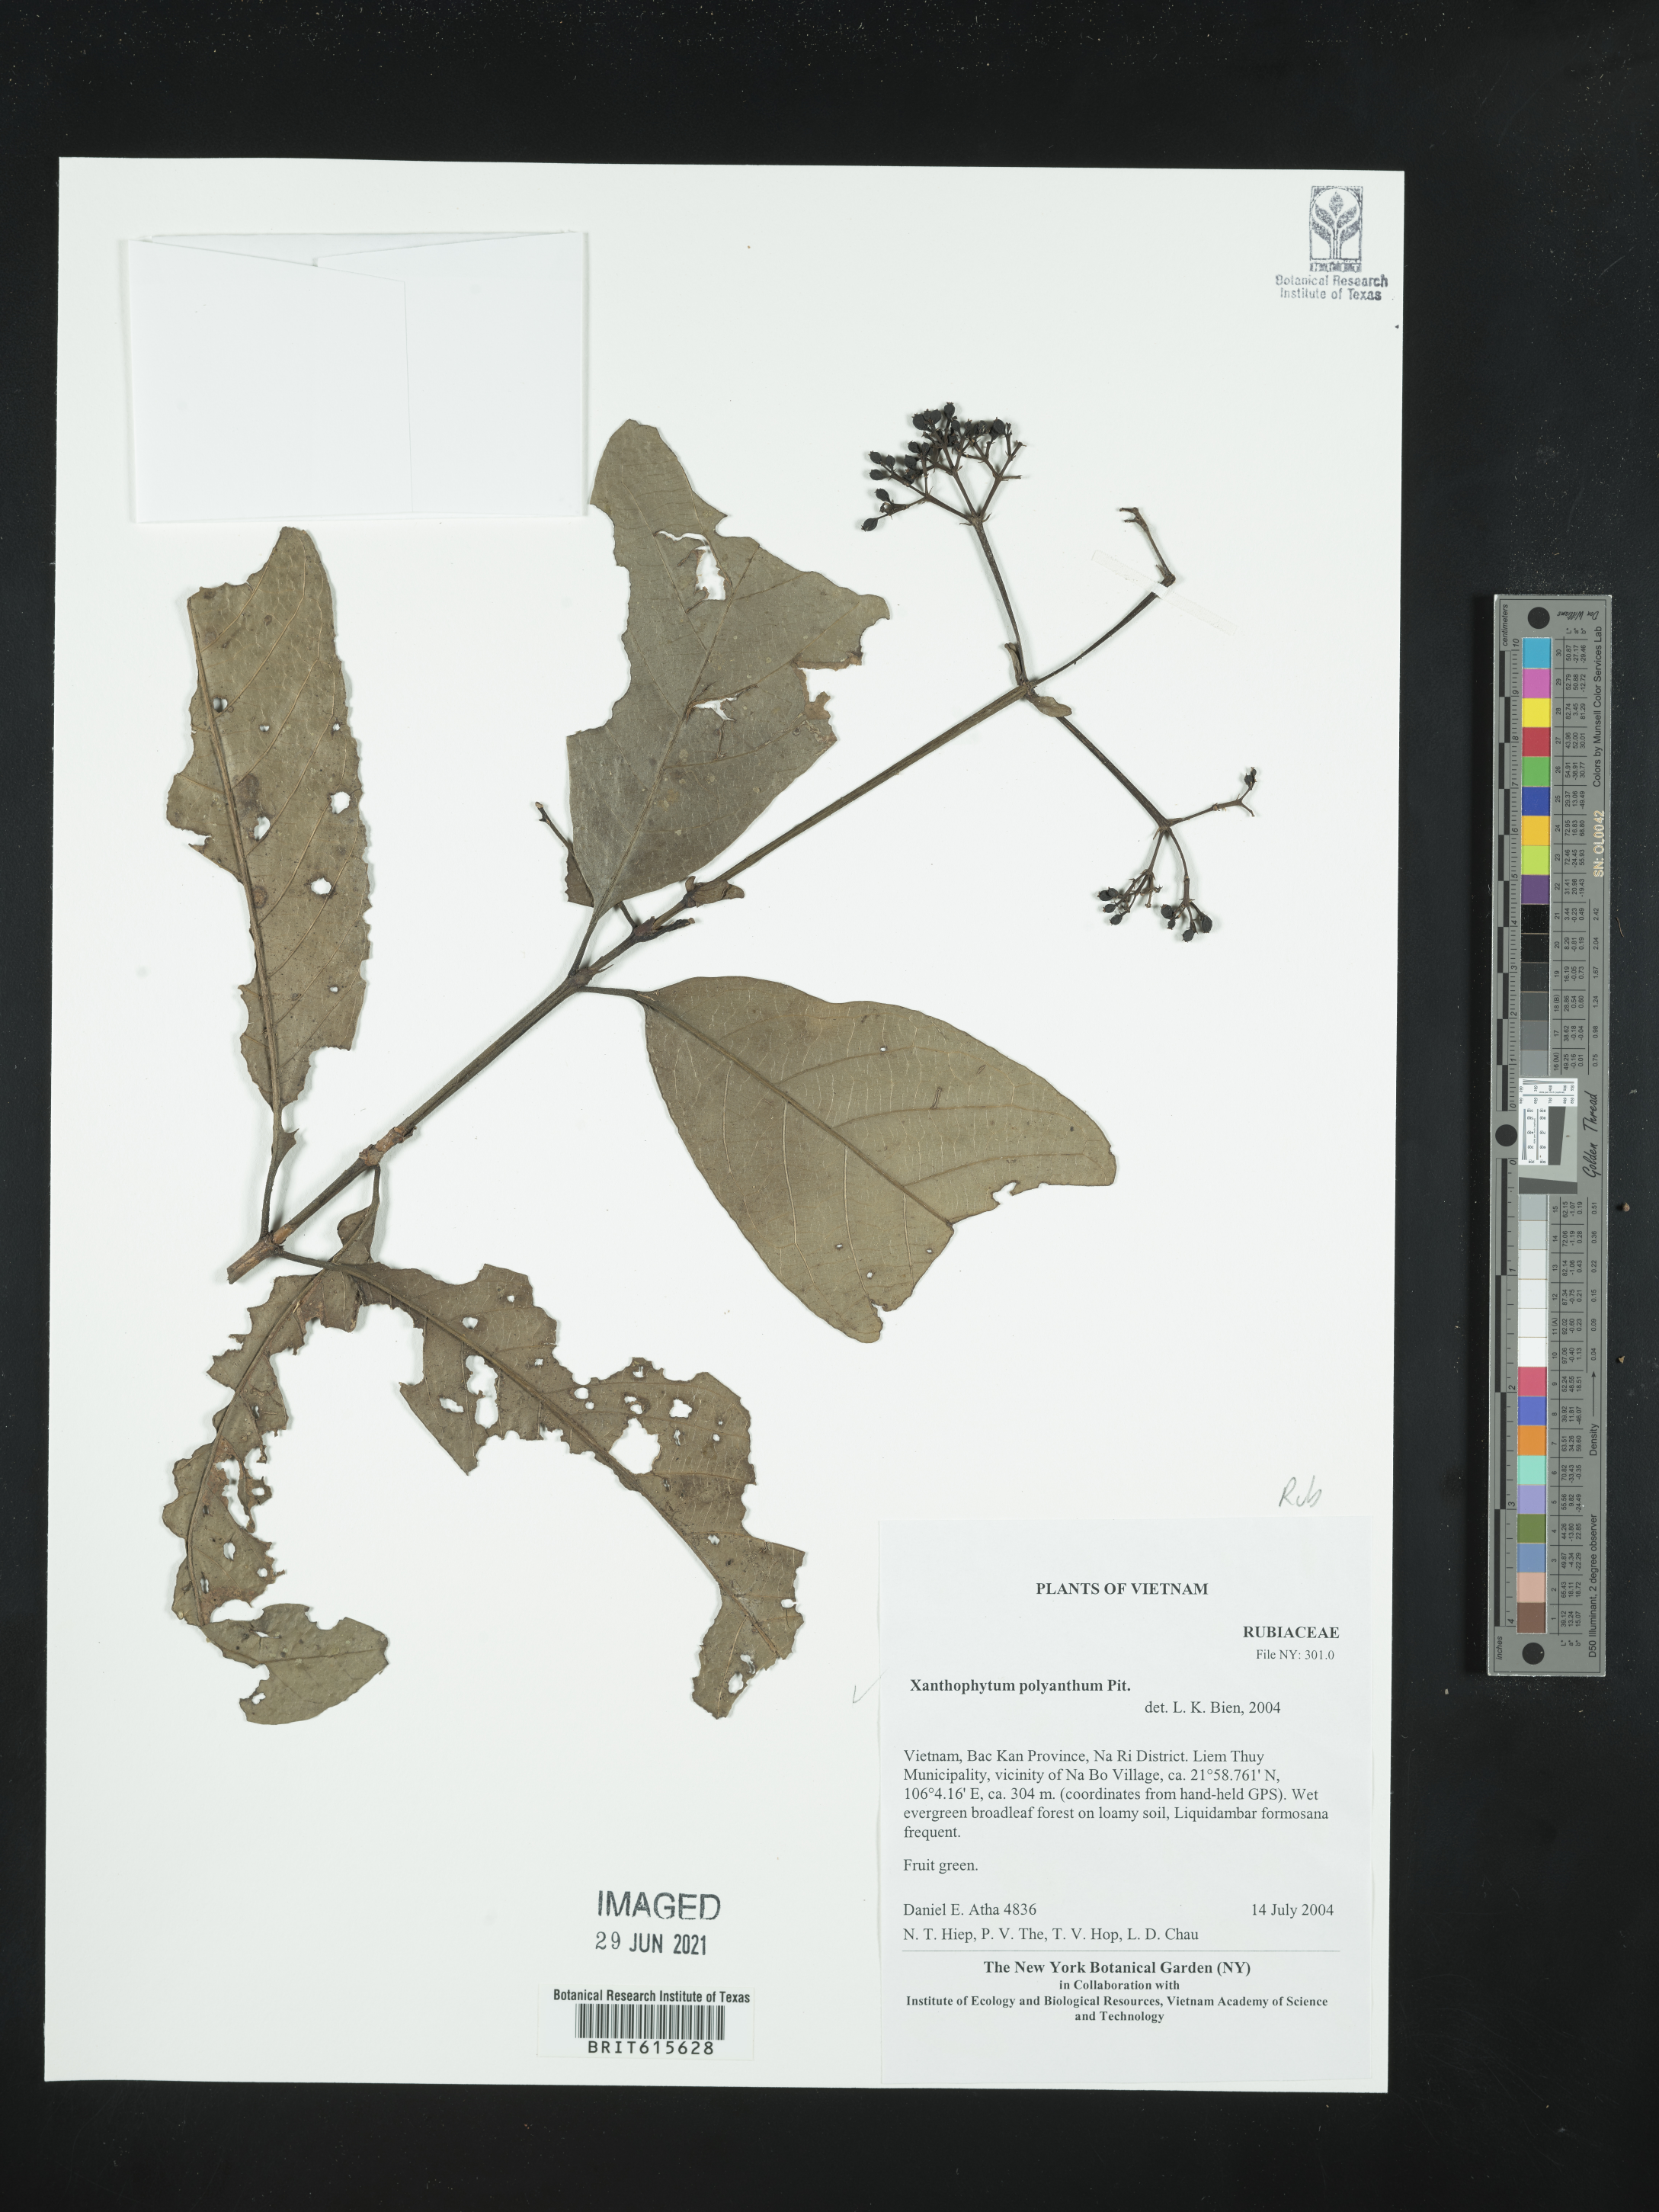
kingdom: Plantae
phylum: Tracheophyta
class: Magnoliopsida
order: Gentianales
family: Rubiaceae
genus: Xanthophytum
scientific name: Xanthophytum polyanthum
